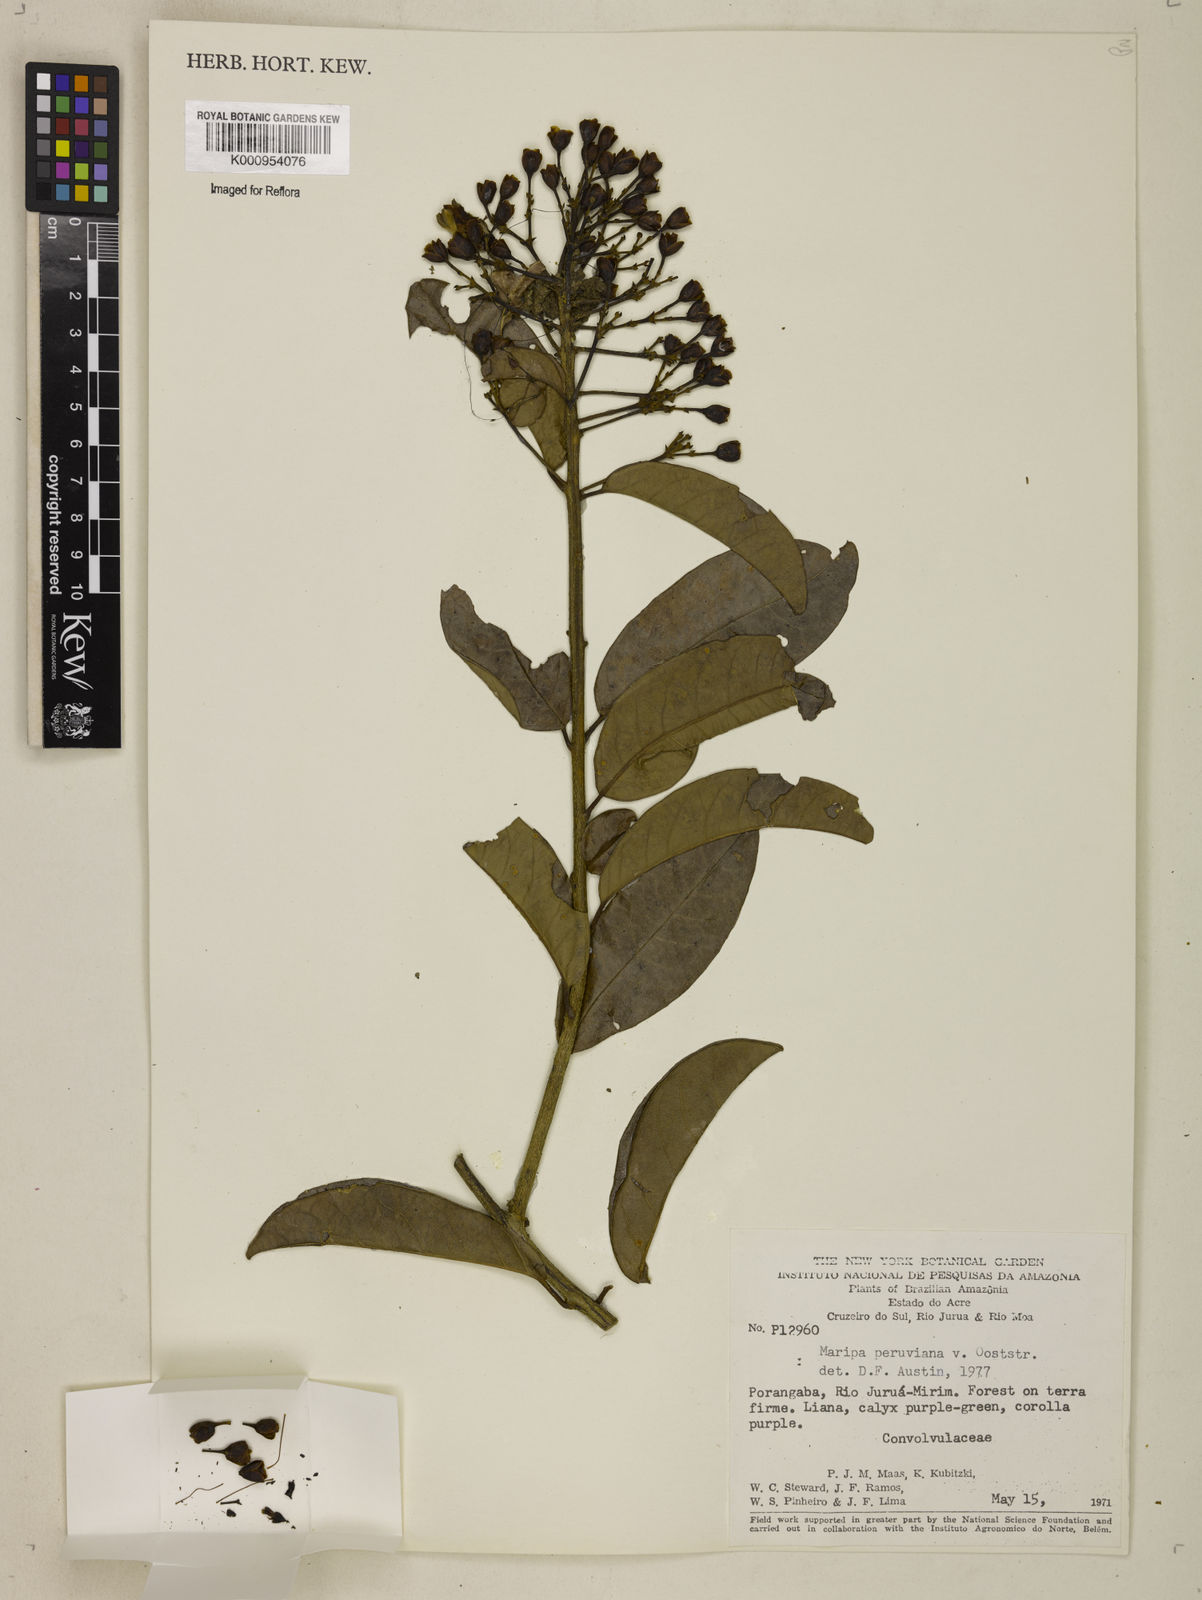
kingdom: Plantae
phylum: Tracheophyta
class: Magnoliopsida
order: Solanales
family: Convolvulaceae
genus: Maripa
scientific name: Maripa paniculata
